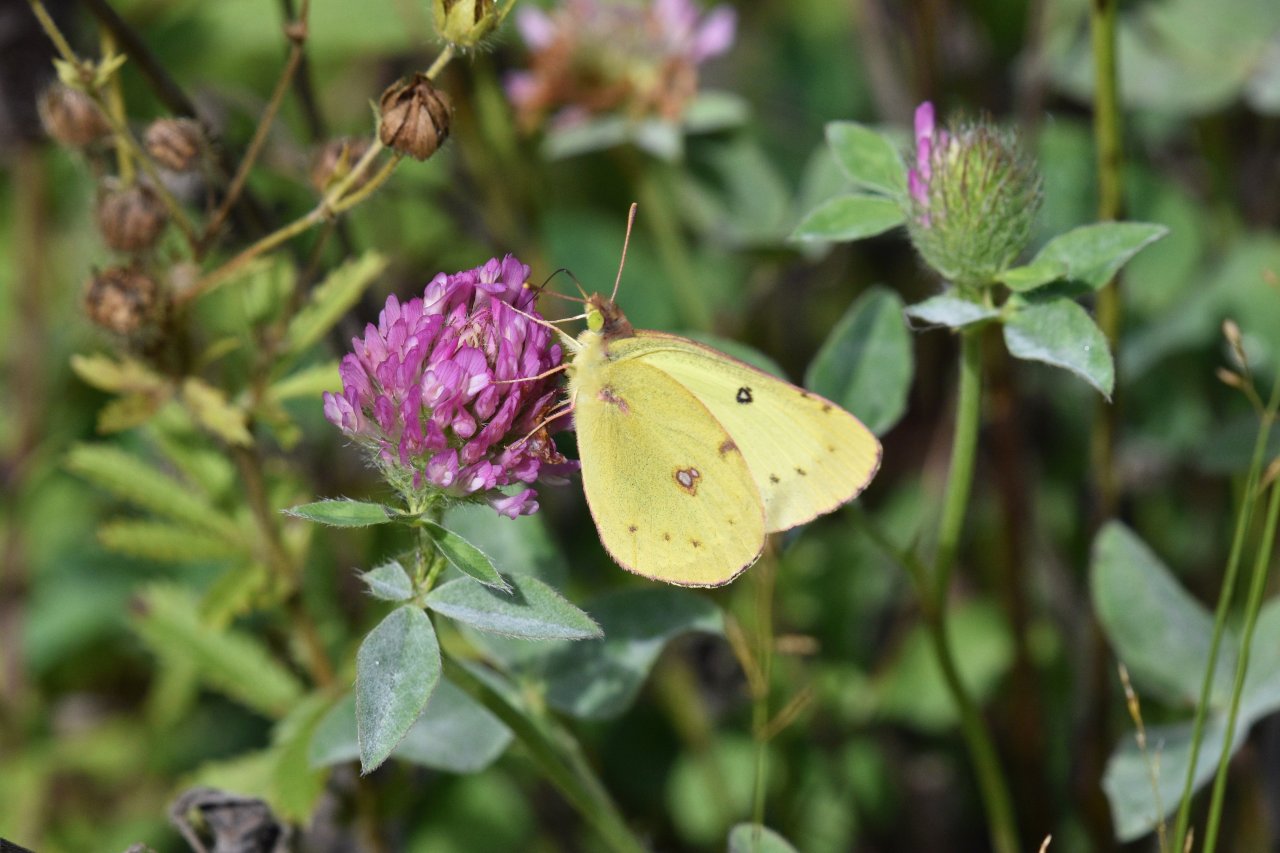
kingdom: Animalia
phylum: Arthropoda
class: Insecta
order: Lepidoptera
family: Pieridae
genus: Colias
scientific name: Colias philodice
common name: Clouded Sulphur
